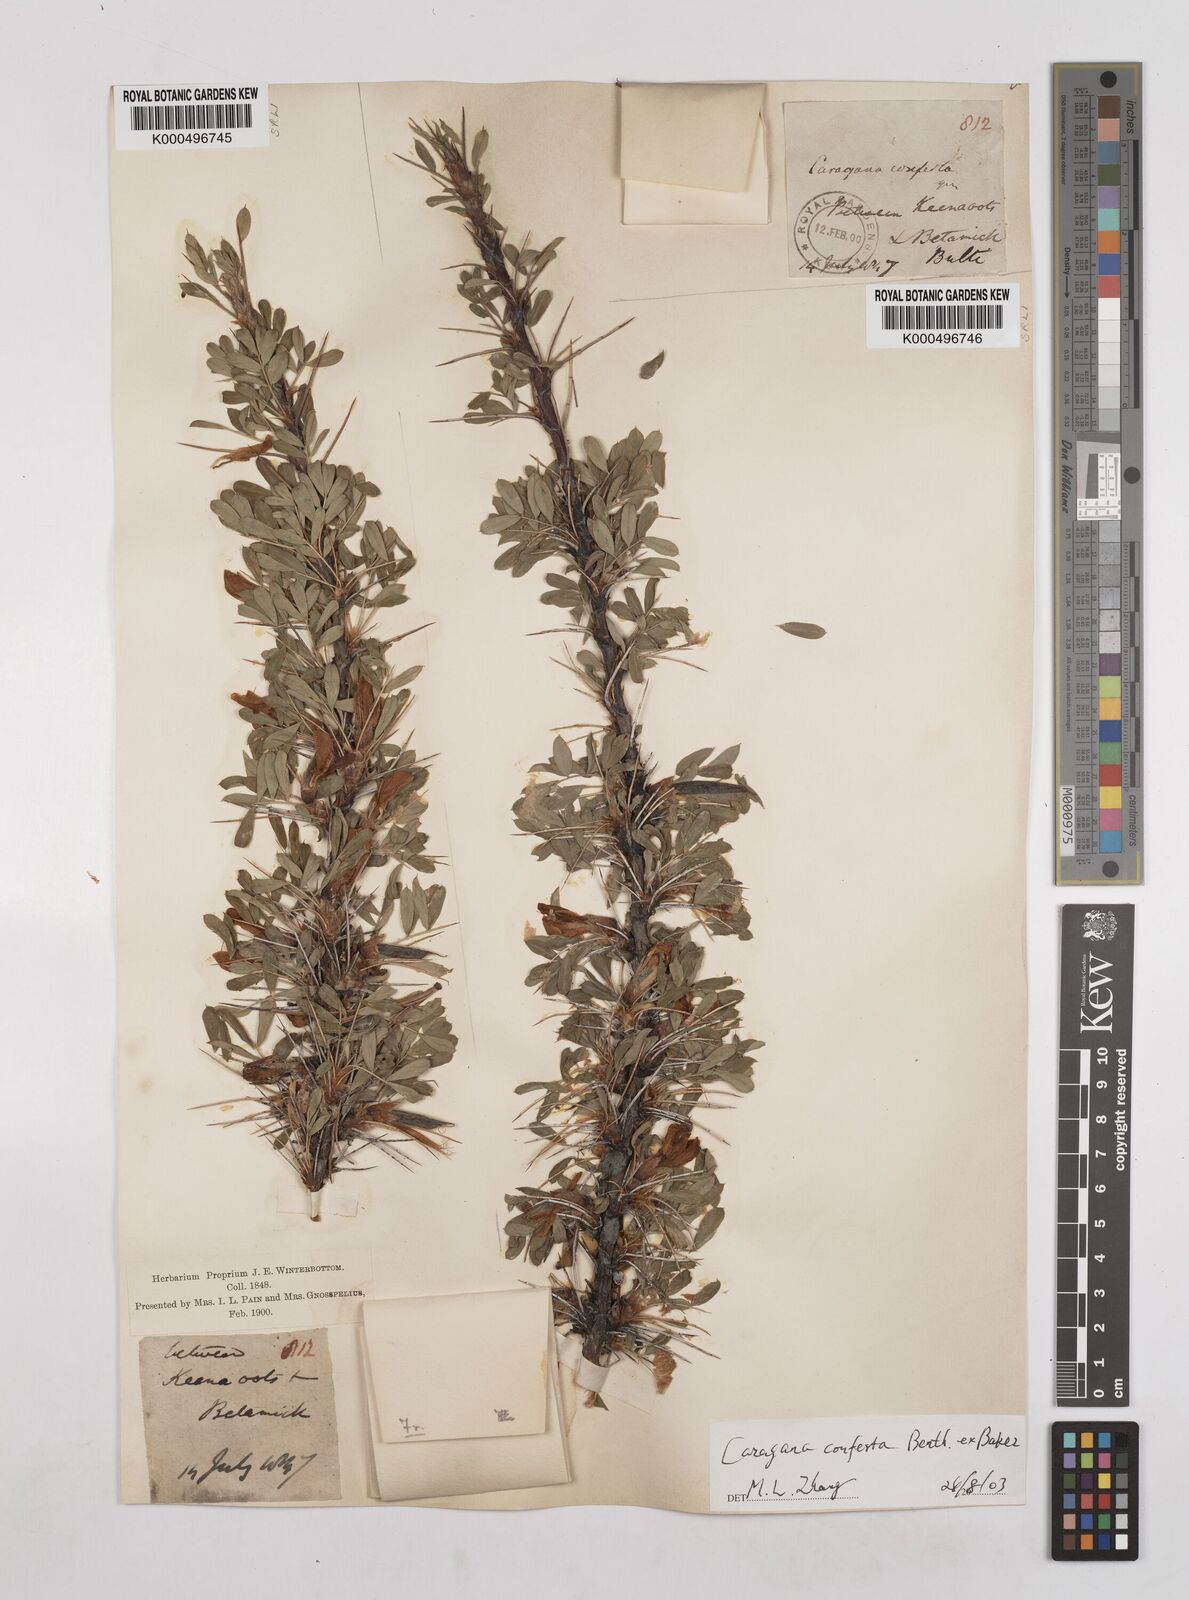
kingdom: Plantae
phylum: Tracheophyta
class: Magnoliopsida
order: Fabales
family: Fabaceae
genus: Caragana
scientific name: Caragana conferta
